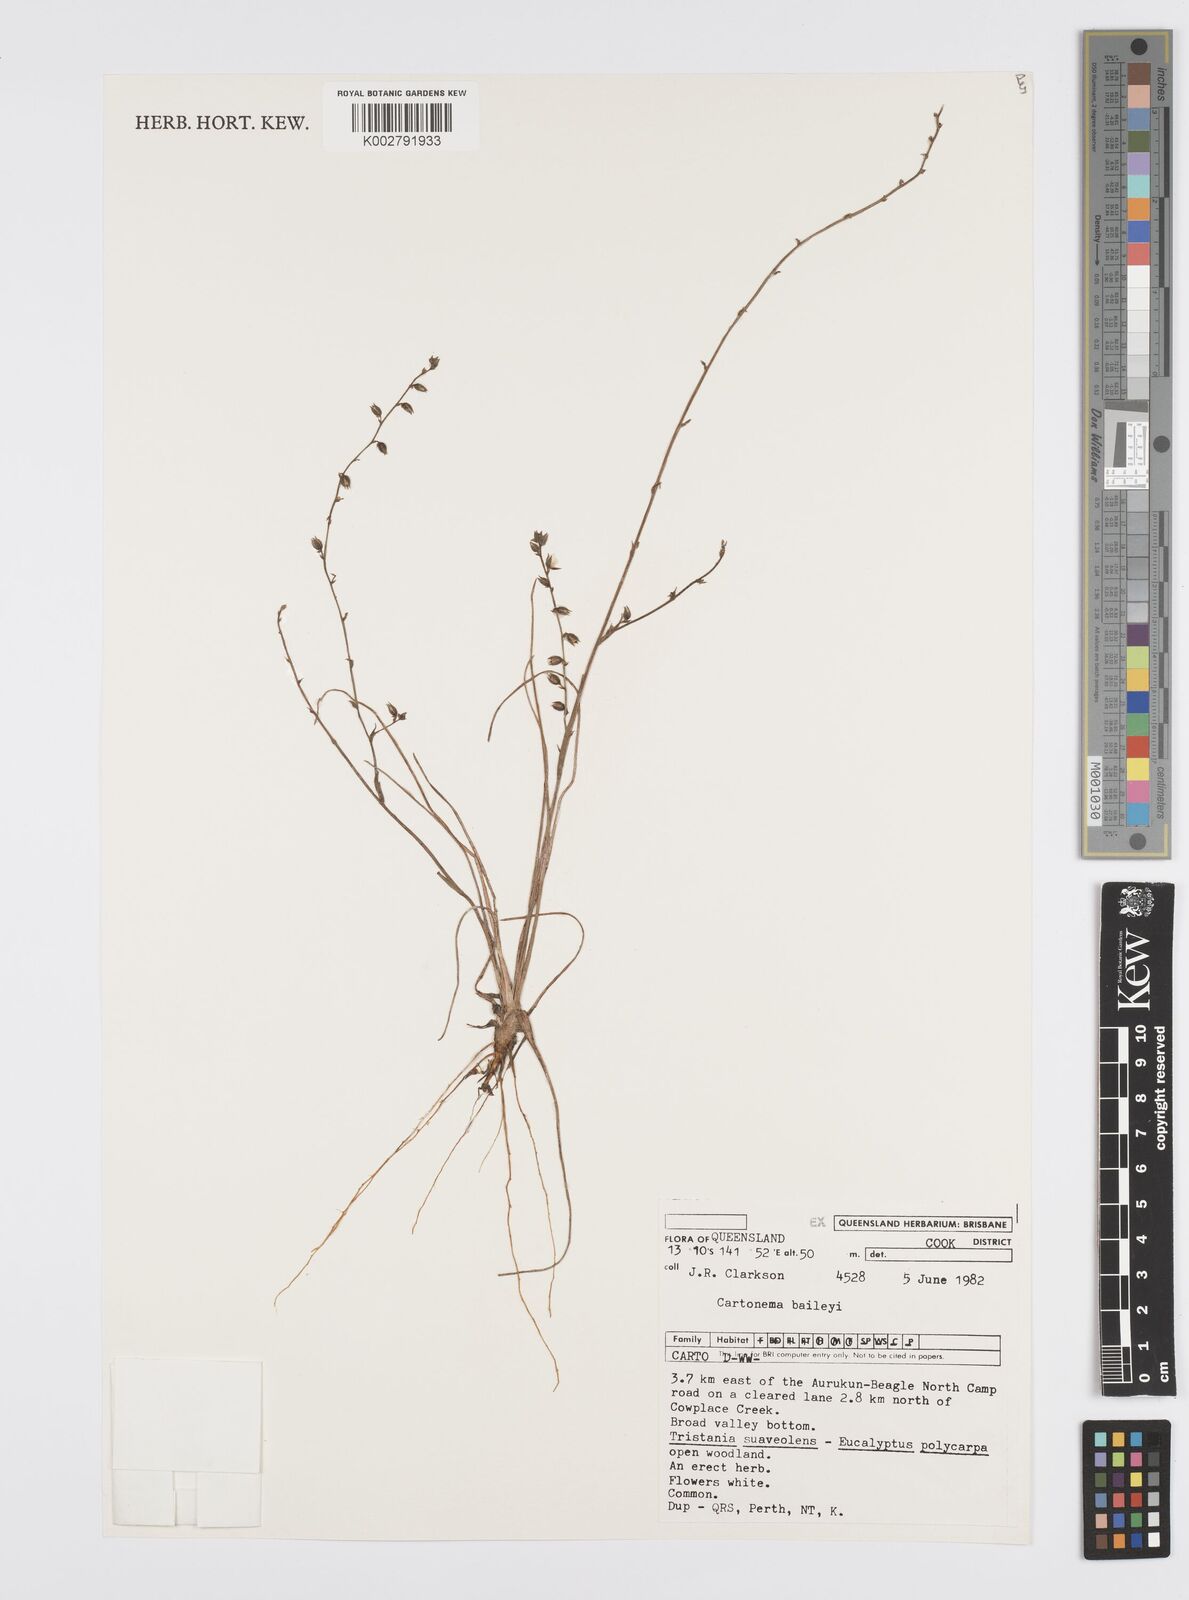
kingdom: Plantae
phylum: Tracheophyta
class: Liliopsida
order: Commelinales
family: Commelinaceae
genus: Cartonema
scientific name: Cartonema baileyi
